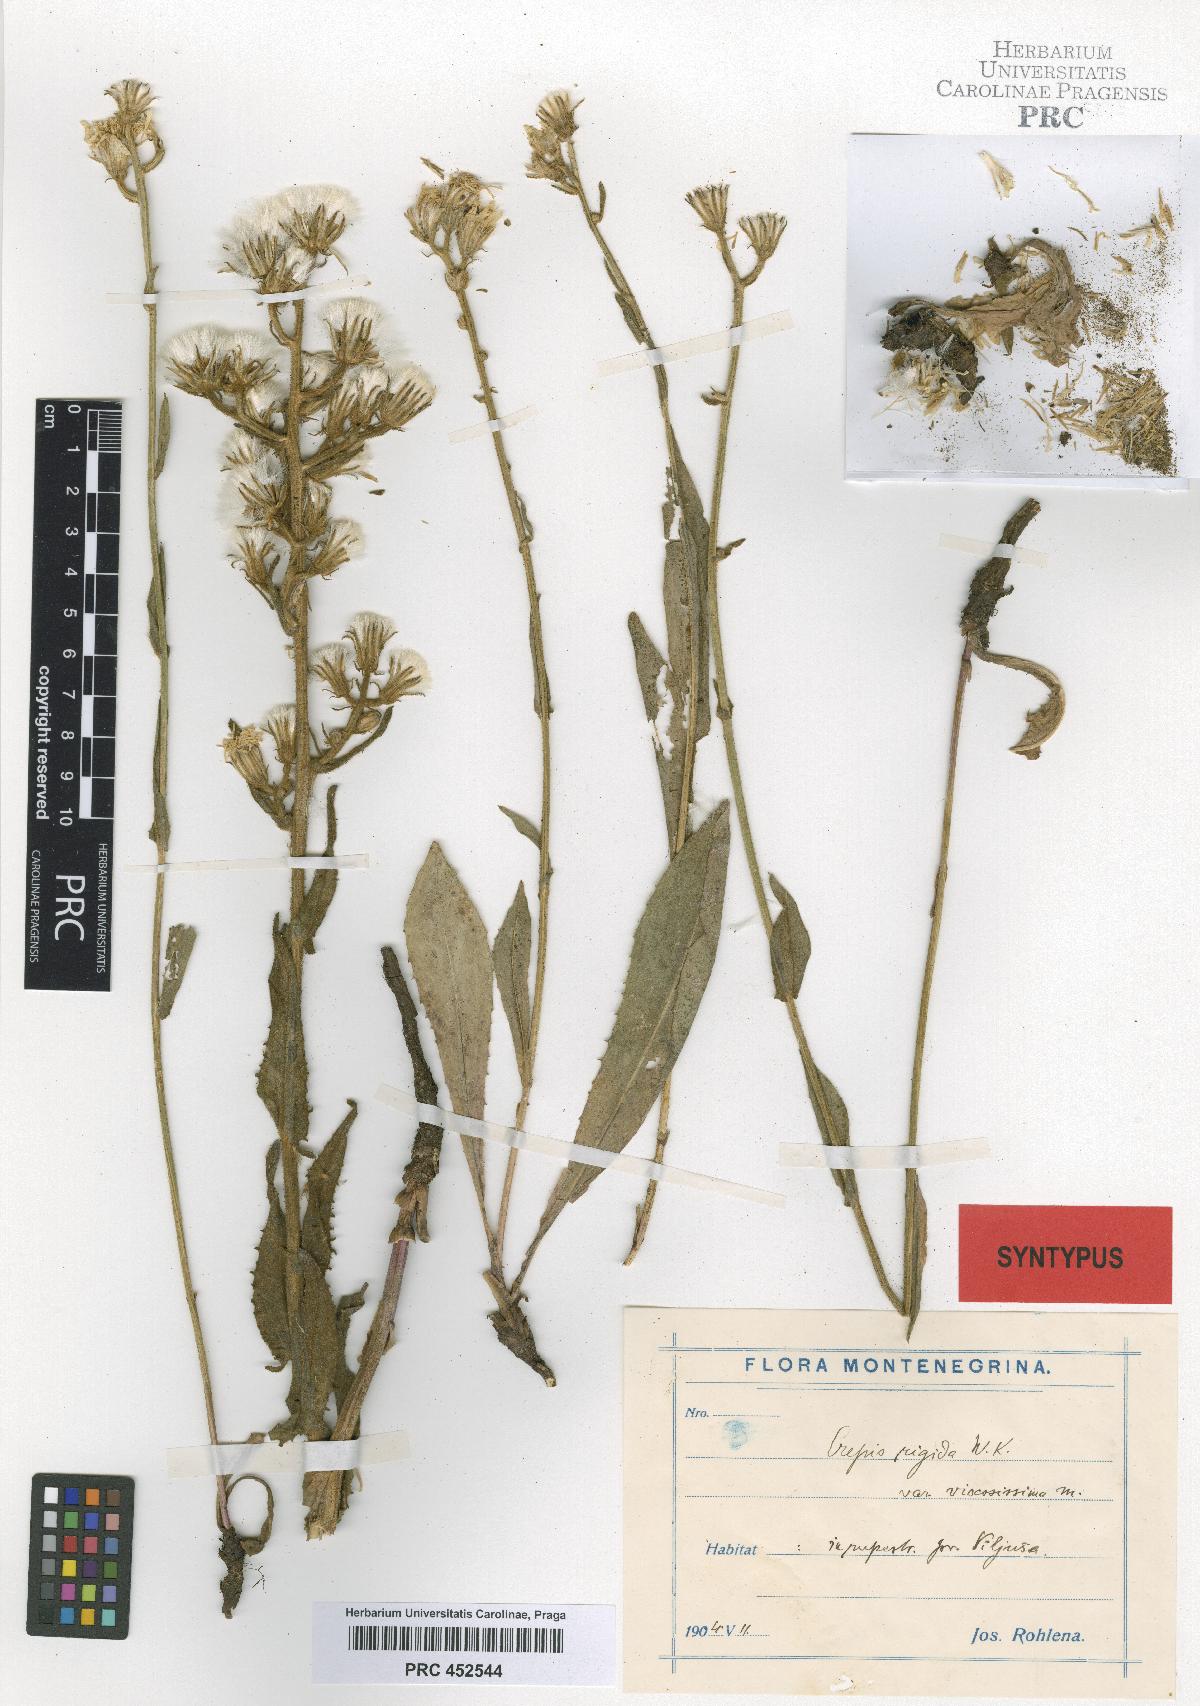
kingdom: Plantae
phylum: Tracheophyta
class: Magnoliopsida
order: Asterales
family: Asteraceae
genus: Crepis
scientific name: Crepis pannonica
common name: Pasture hawksbeard
